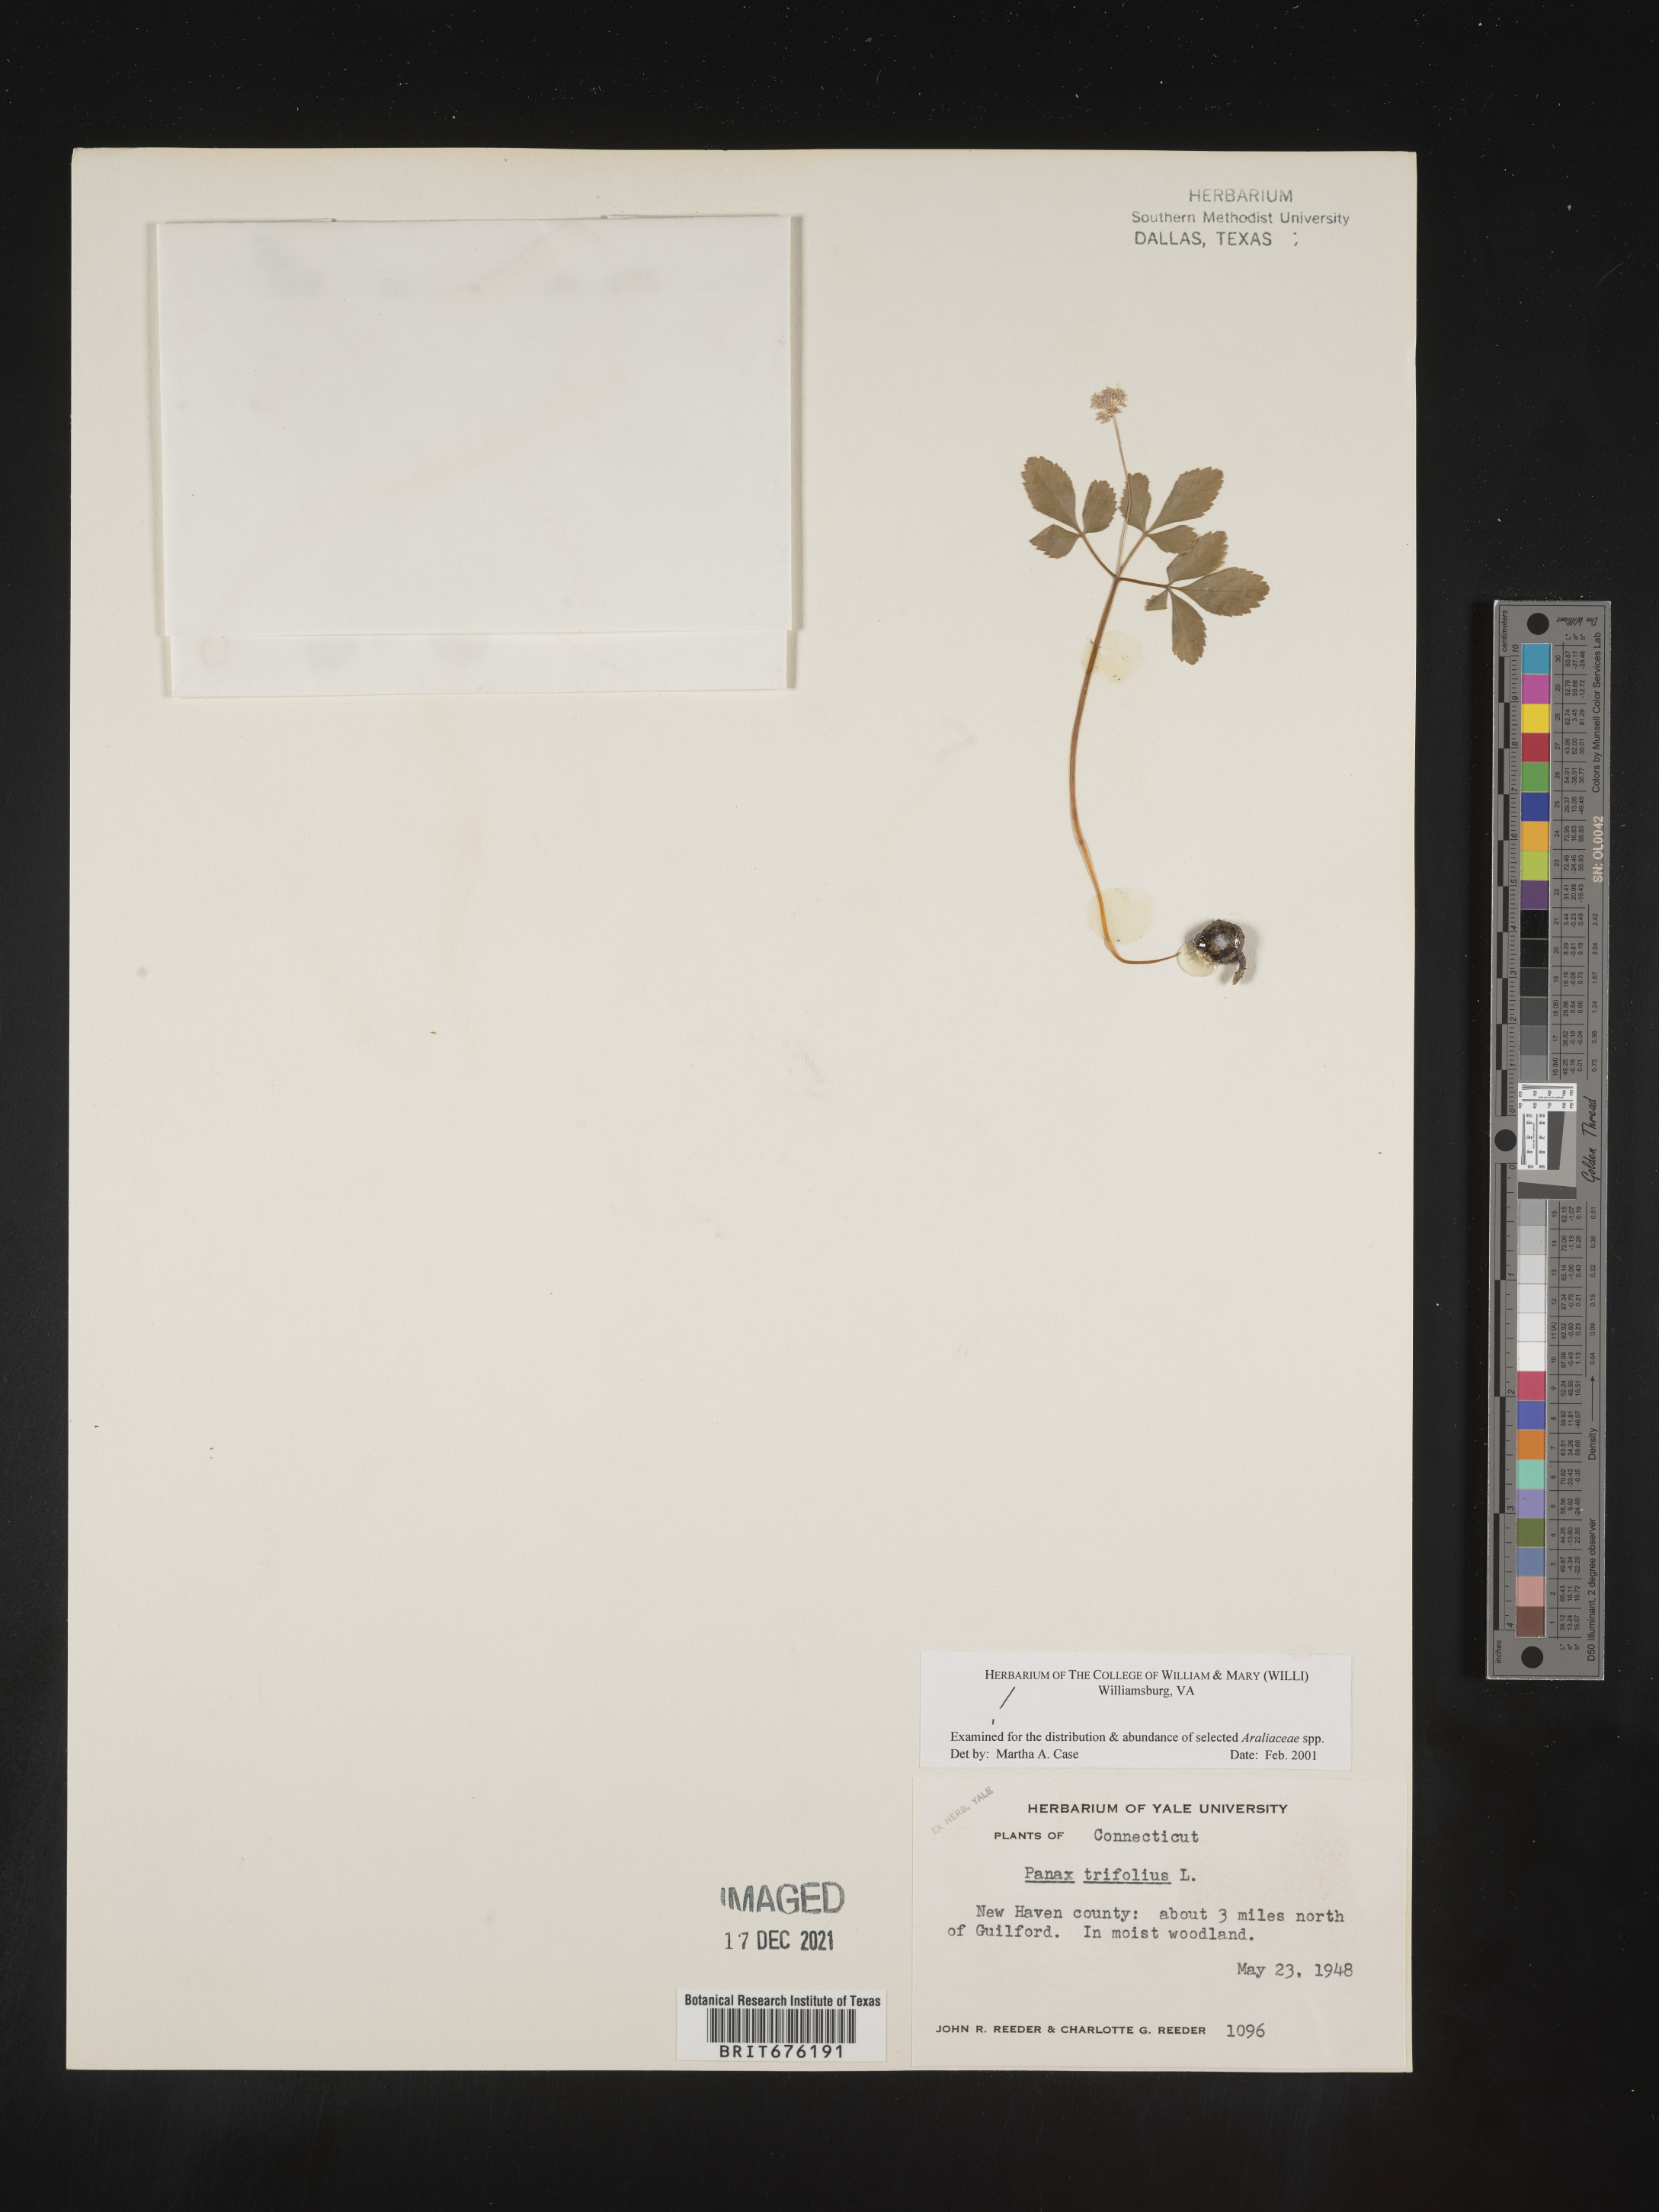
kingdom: Plantae
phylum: Tracheophyta
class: Magnoliopsida
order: Apiales
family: Araliaceae
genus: Panax
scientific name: Panax trifolius
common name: Dwarf ginseng
